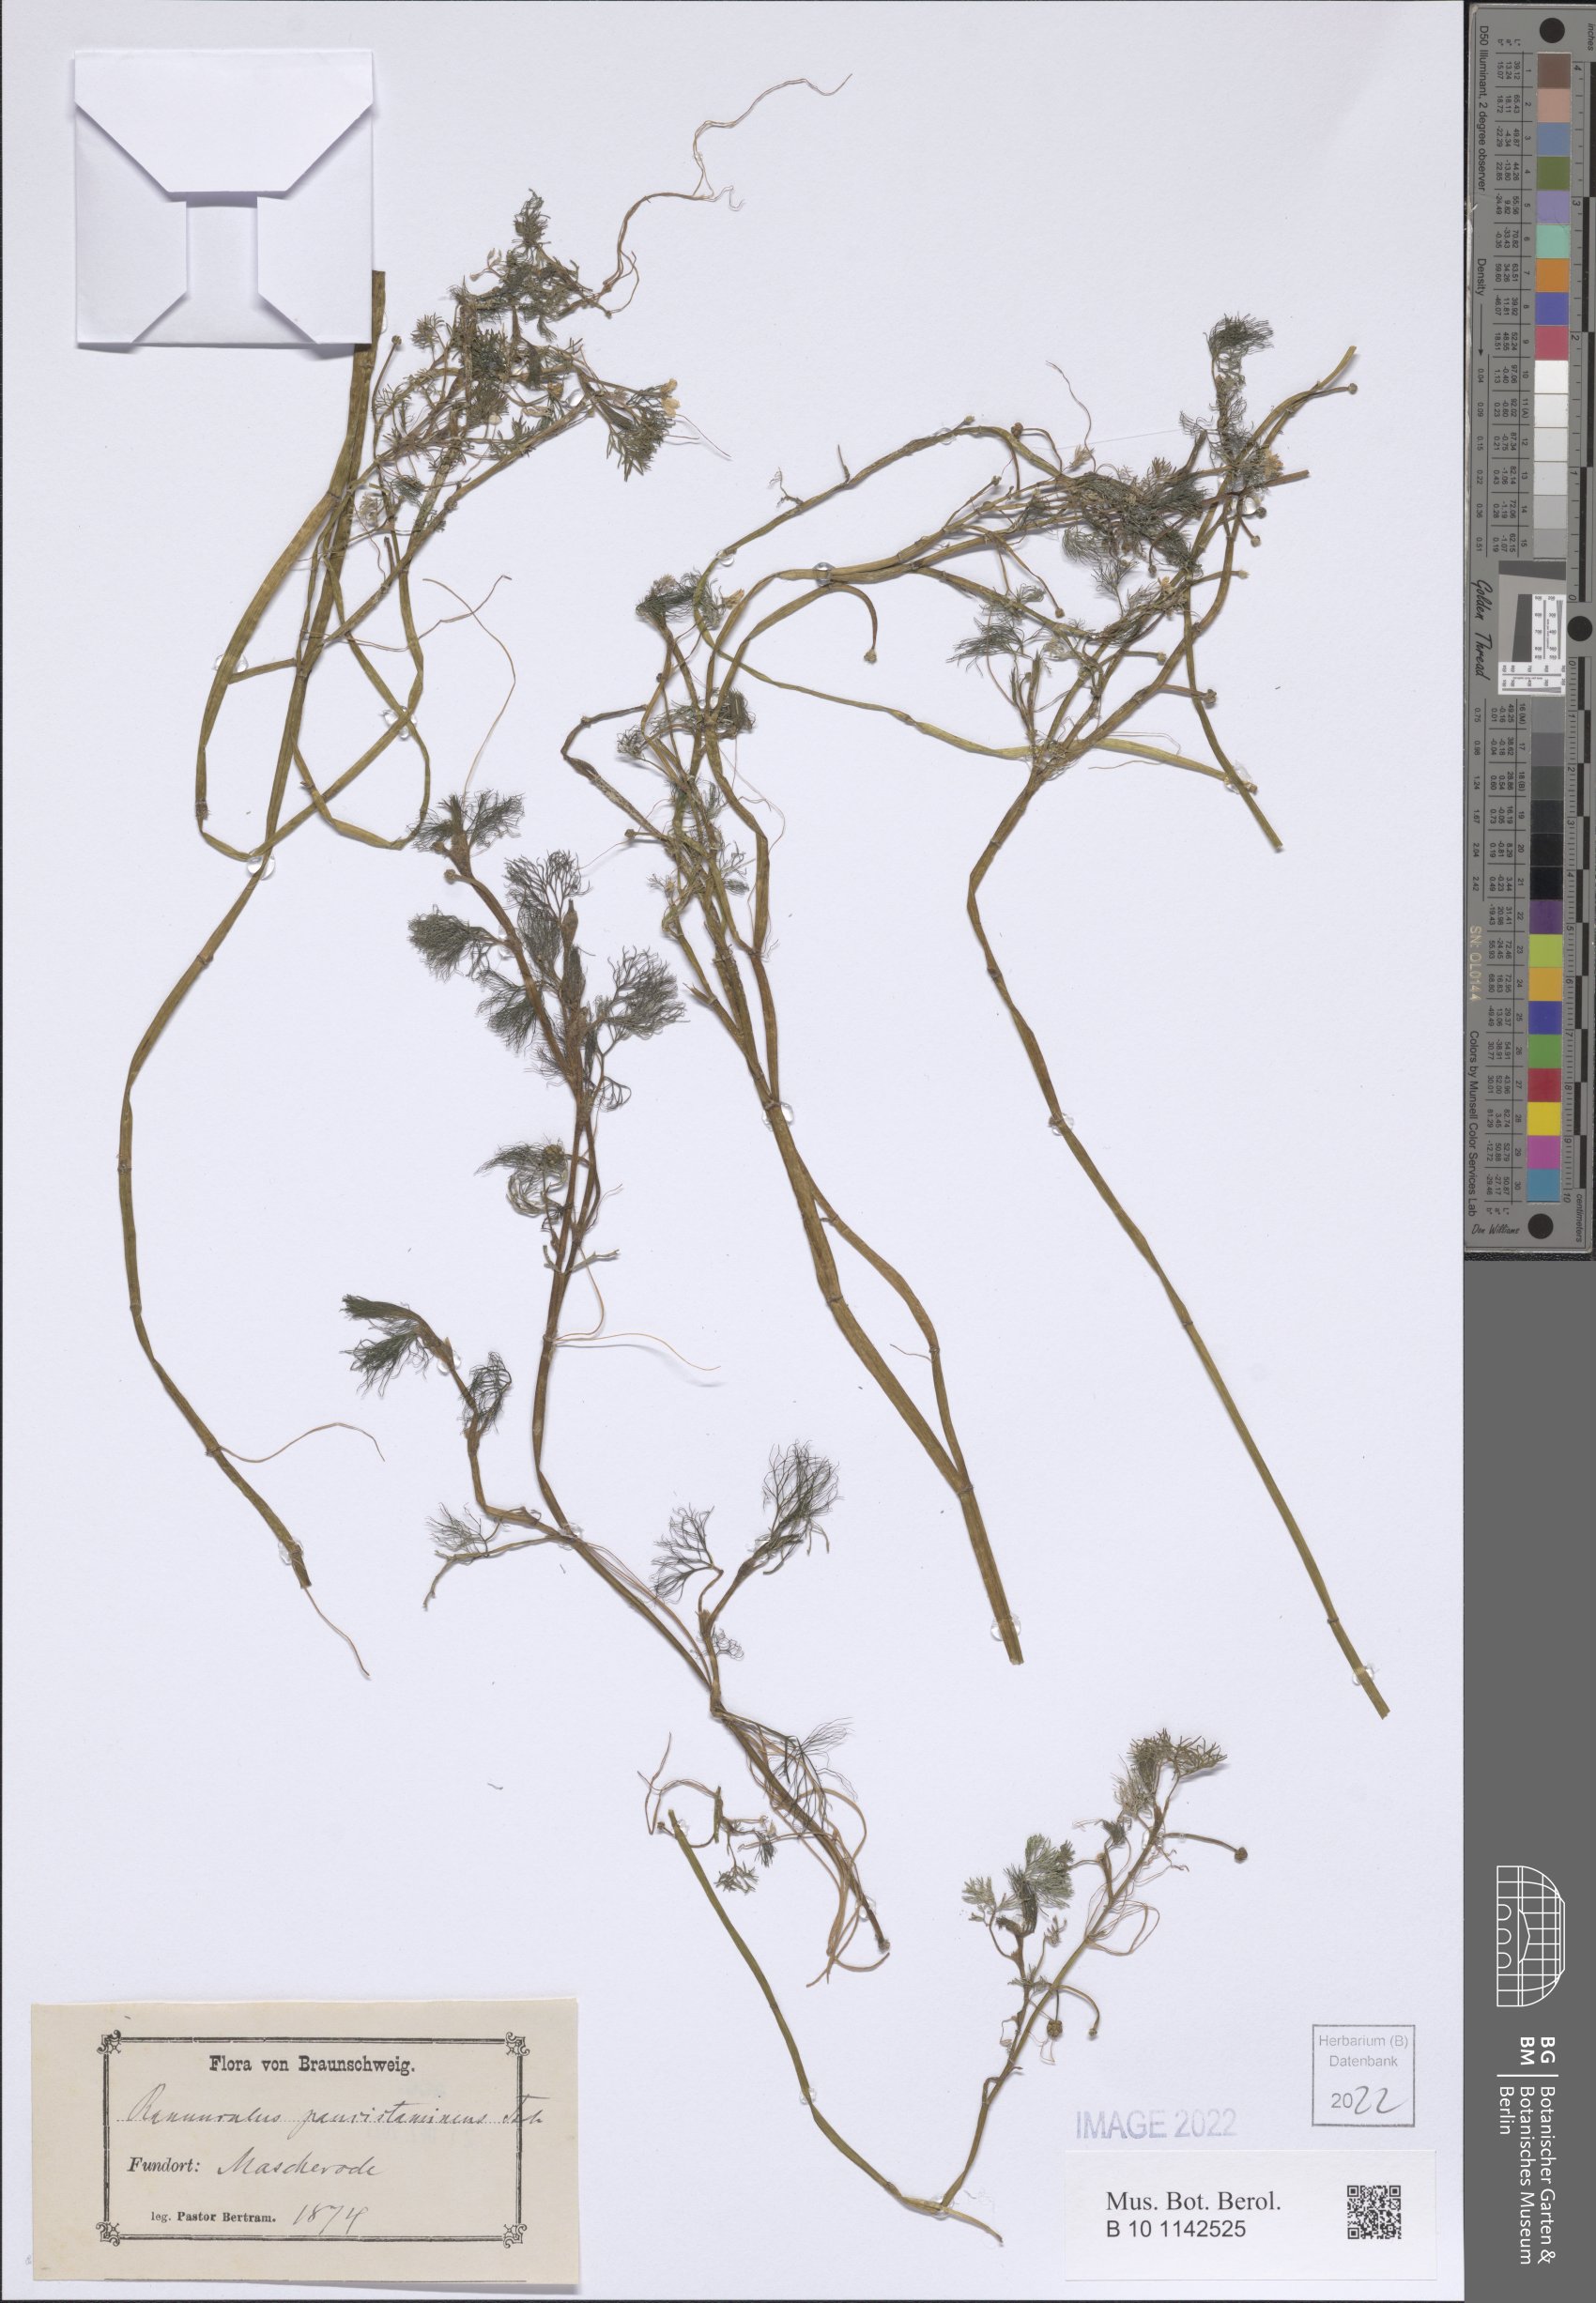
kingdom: Plantae
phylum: Tracheophyta
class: Magnoliopsida
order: Ranunculales
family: Ranunculaceae
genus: Ranunculus
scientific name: Ranunculus trichophyllus
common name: Thread-leaved water-crowfoot
